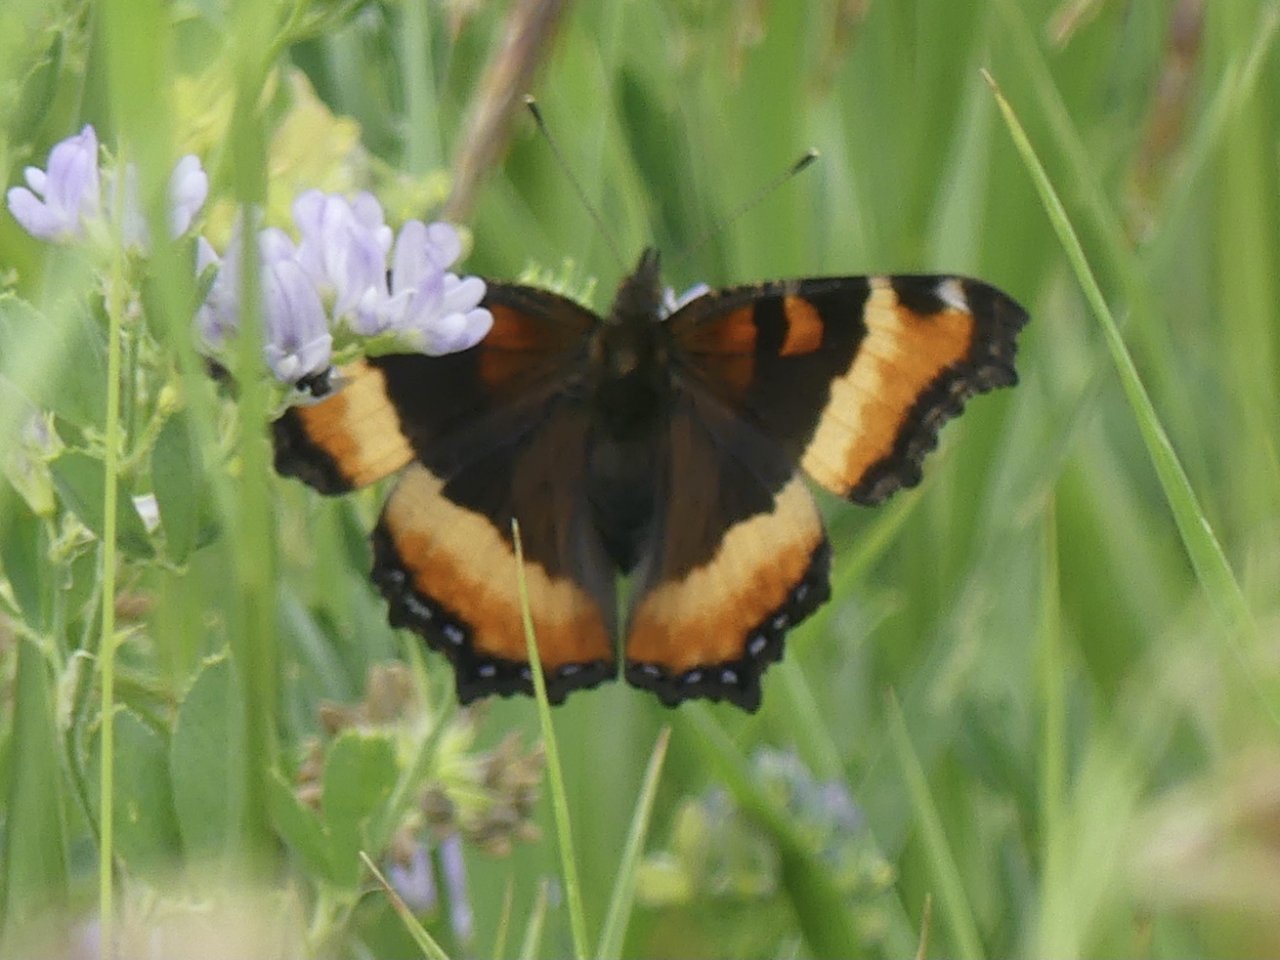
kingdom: Animalia
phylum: Arthropoda
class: Insecta
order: Lepidoptera
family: Nymphalidae
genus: Aglais
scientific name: Aglais milberti
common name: Milbert's Tortoiseshell
